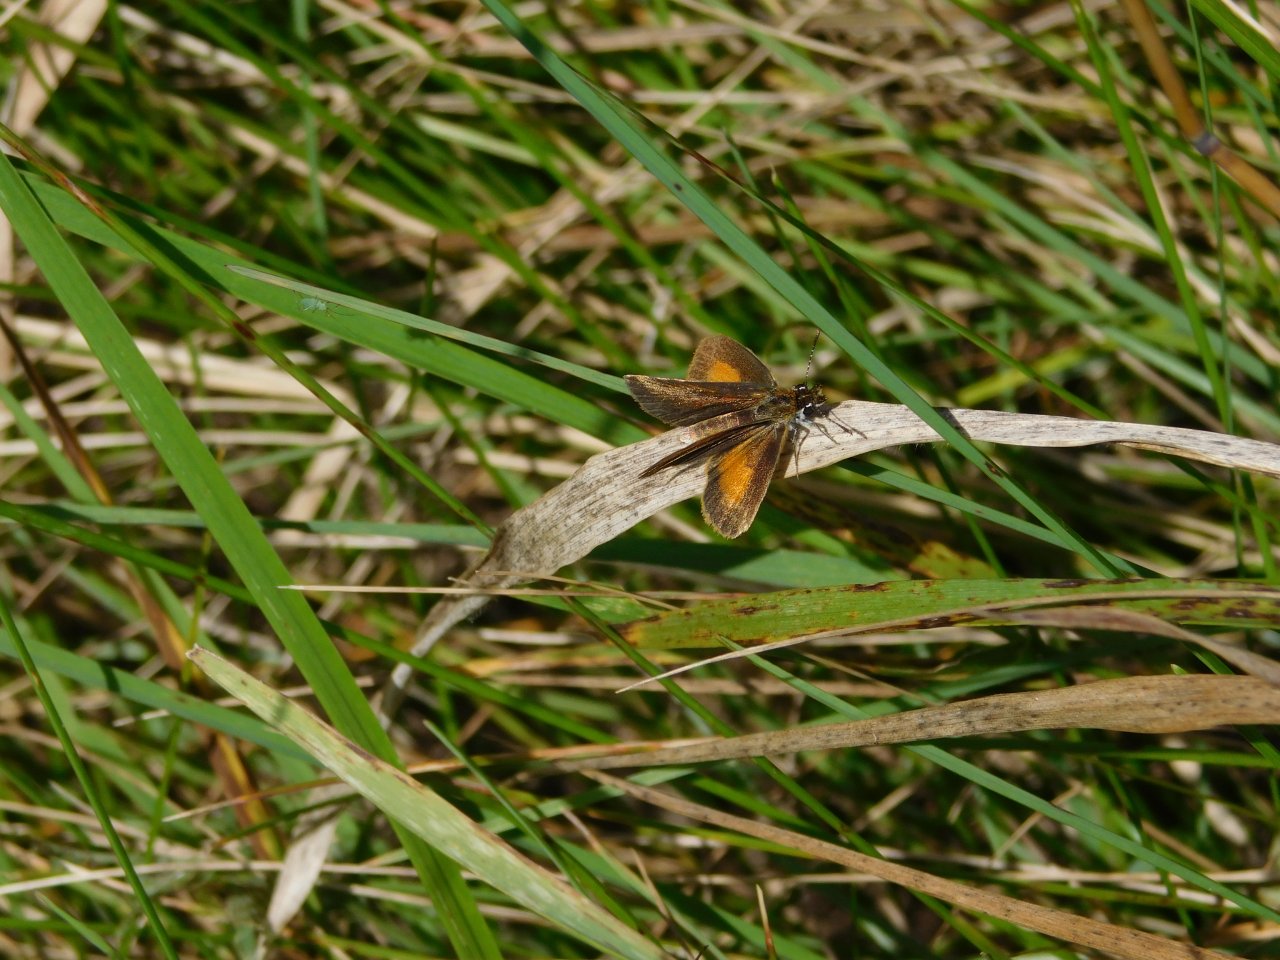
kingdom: Animalia
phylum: Arthropoda
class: Insecta
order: Lepidoptera
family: Hesperiidae
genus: Ancyloxypha
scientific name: Ancyloxypha numitor
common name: Least Skipper
